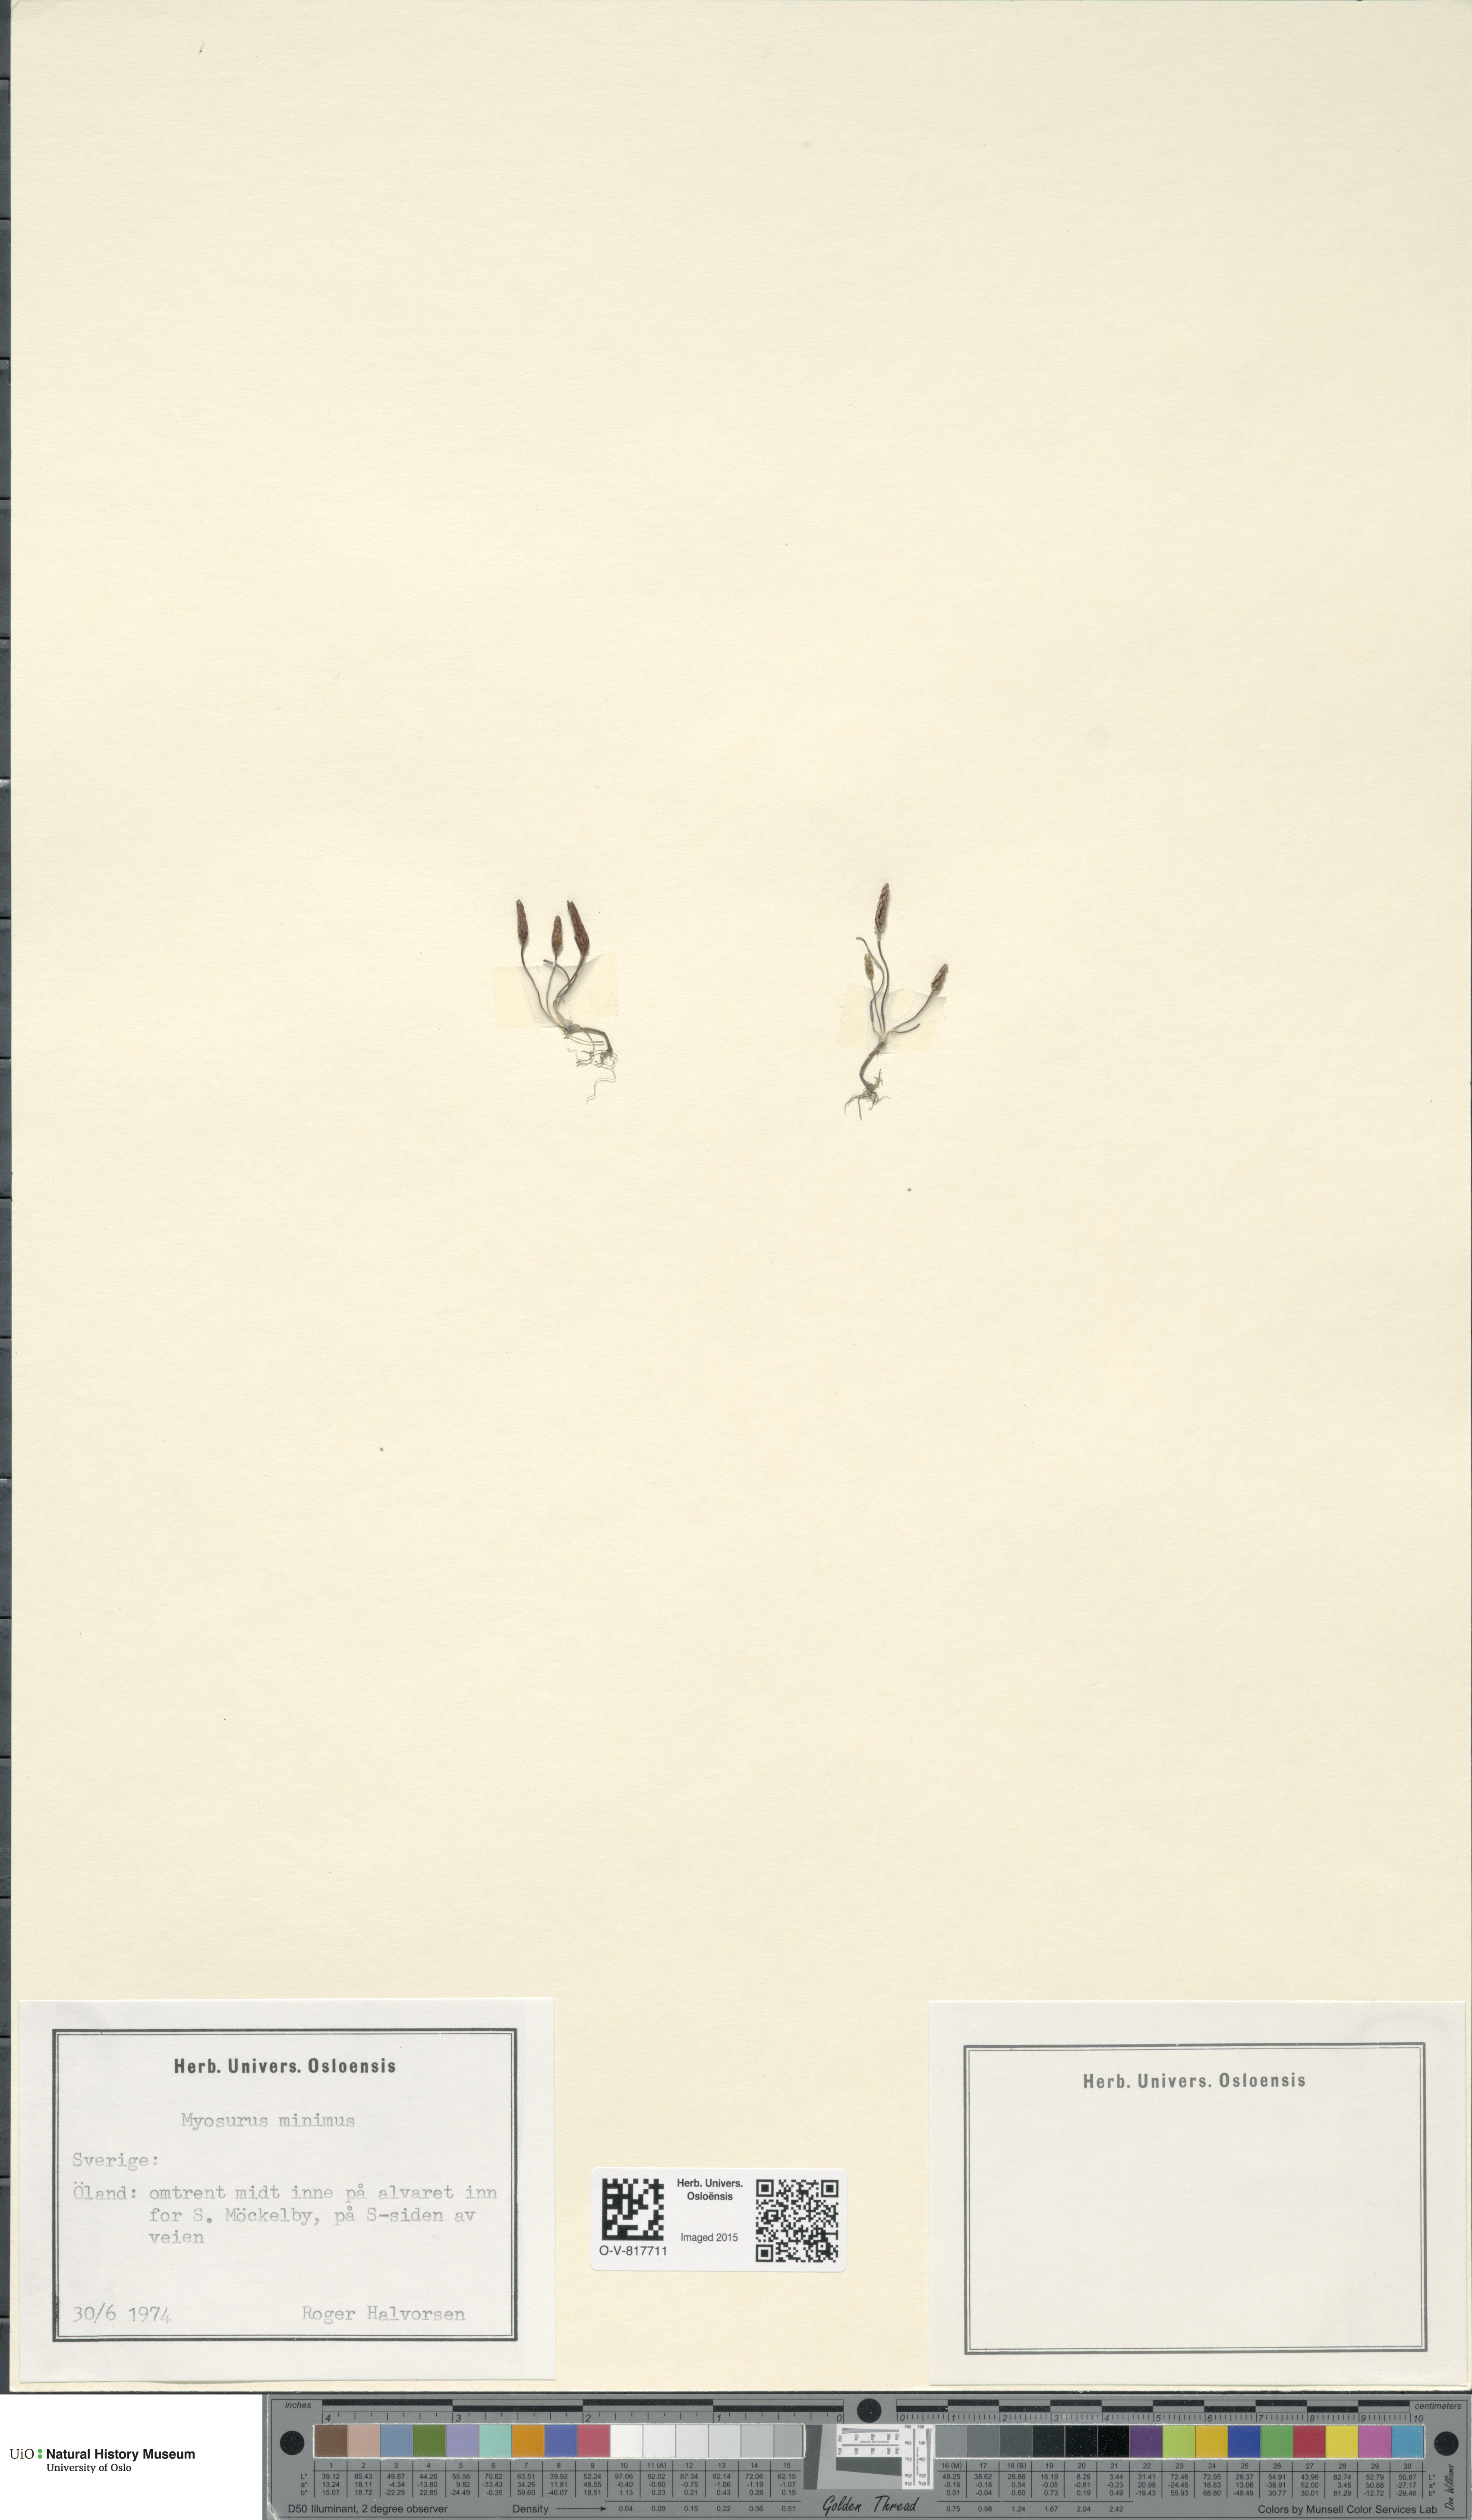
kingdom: Plantae
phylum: Tracheophyta
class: Magnoliopsida
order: Ranunculales
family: Ranunculaceae
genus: Myosurus
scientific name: Myosurus minimus
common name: Mousetail
